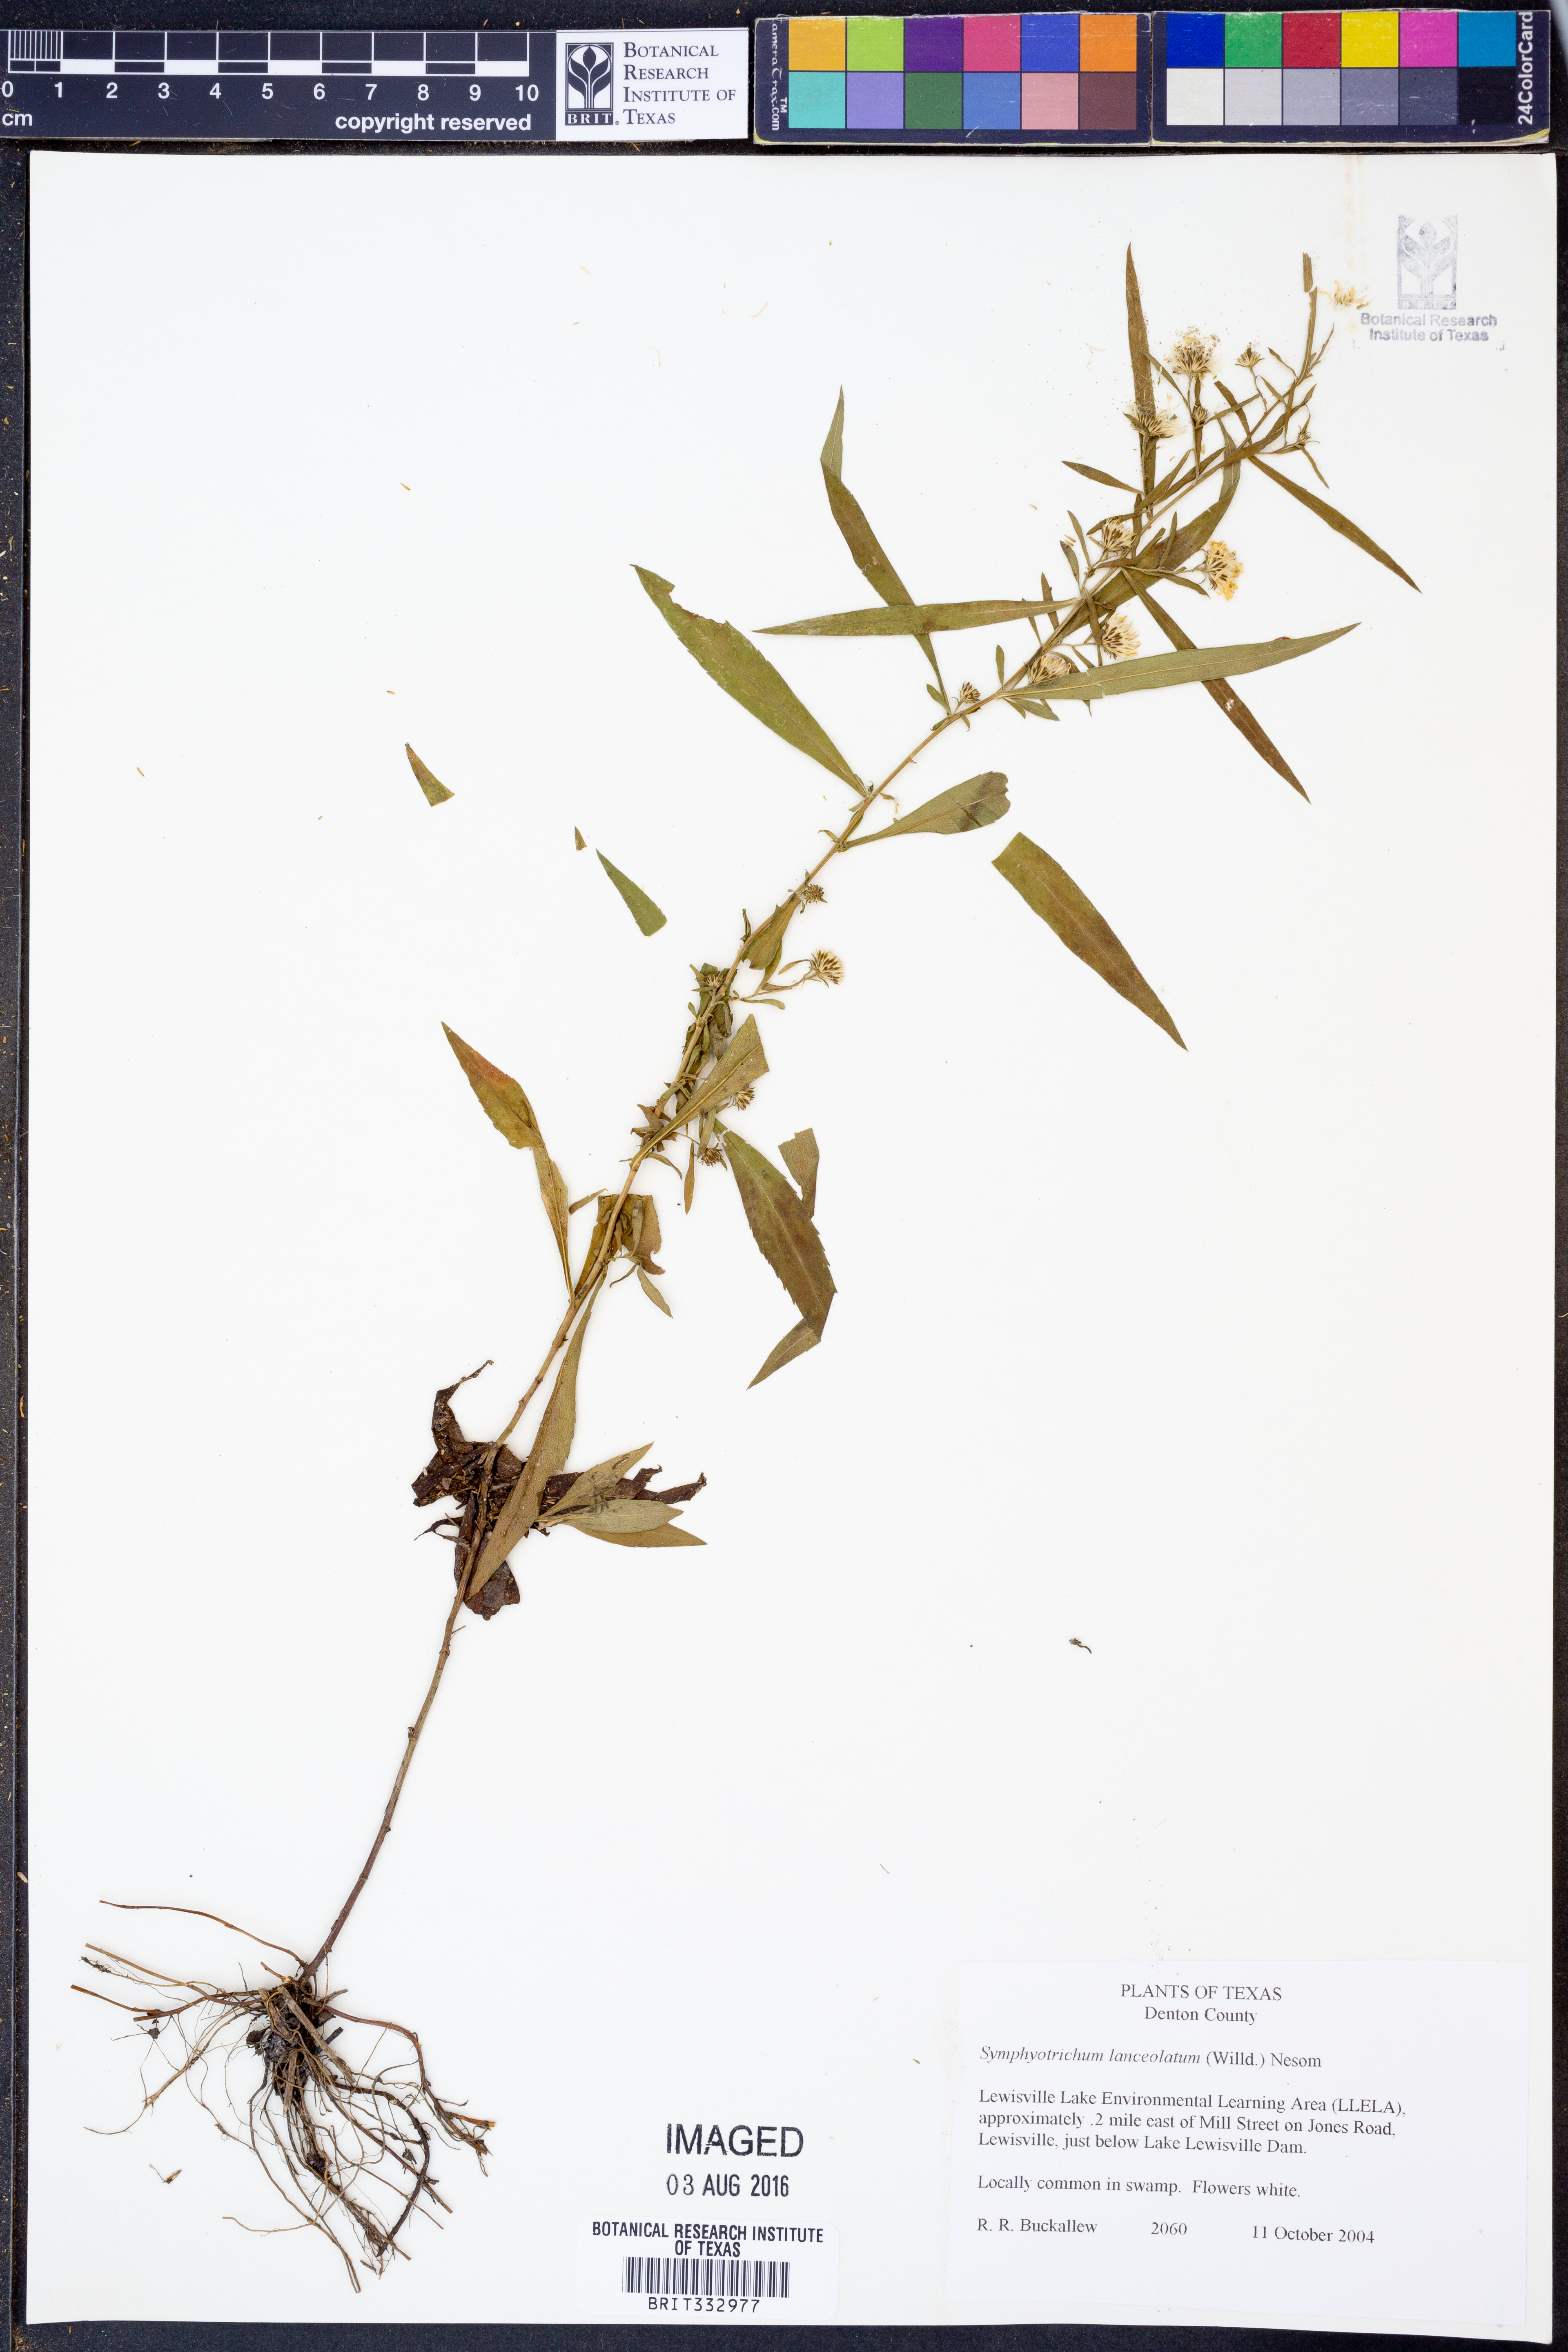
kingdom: Plantae
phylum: Tracheophyta
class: Magnoliopsida
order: Asterales
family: Asteraceae
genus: Symphyotrichum
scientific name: Symphyotrichum lanceolatum
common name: Panicled aster
